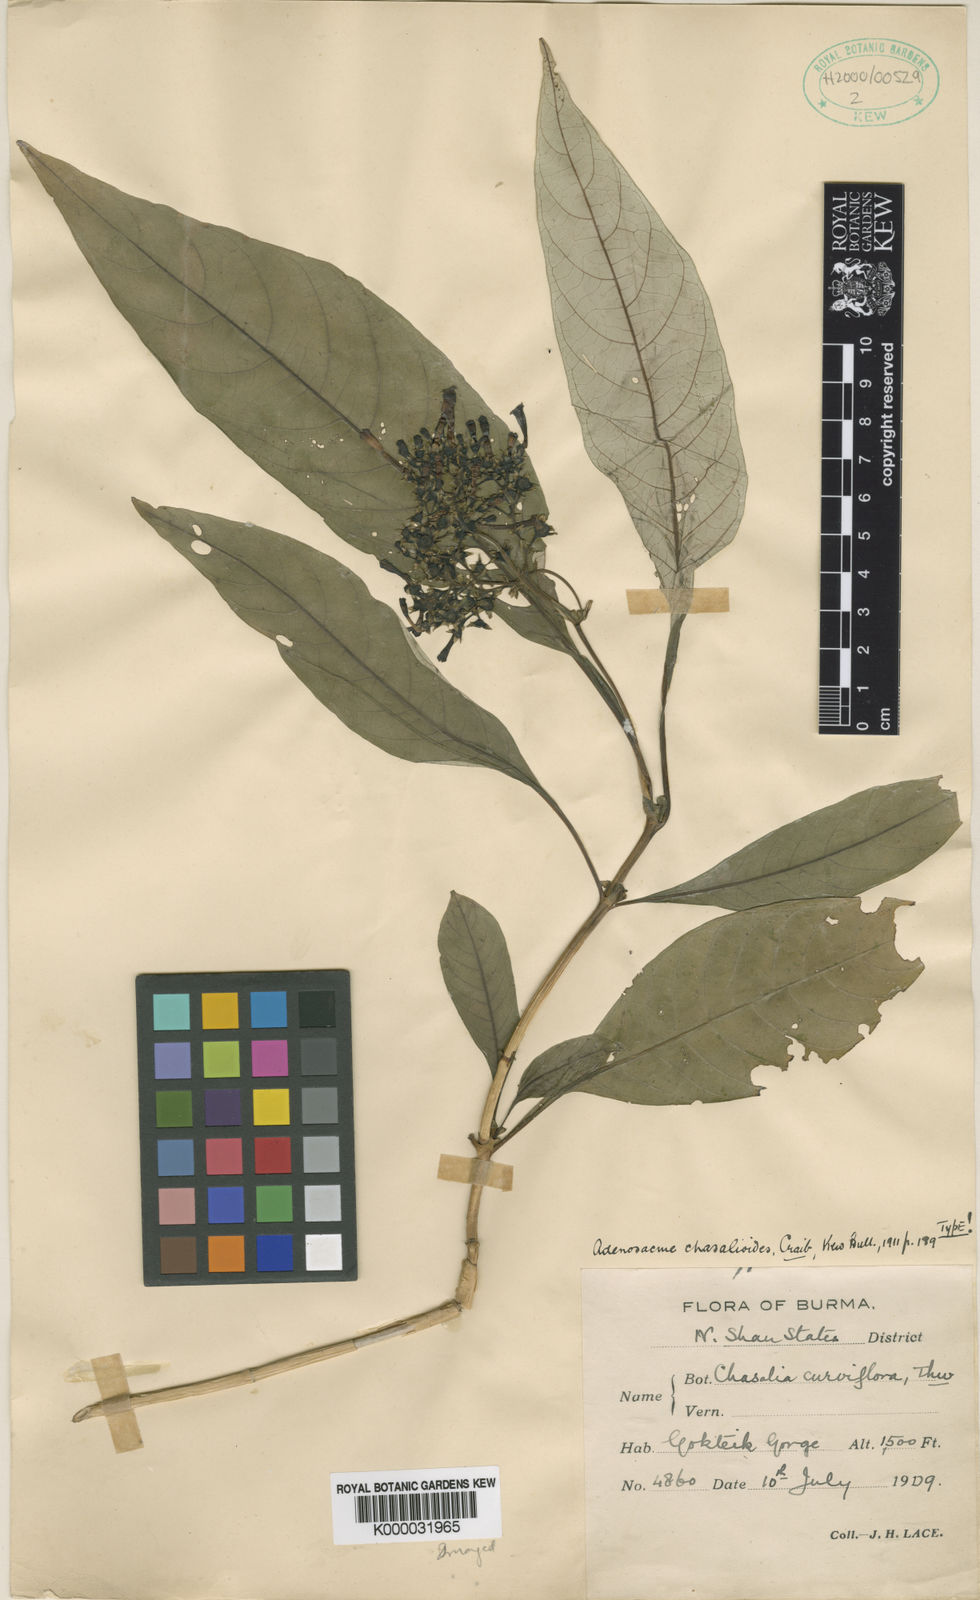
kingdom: Plantae
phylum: Tracheophyta
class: Magnoliopsida
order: Gentianales
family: Rubiaceae
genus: Mycetia
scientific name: Mycetia chasalioides
